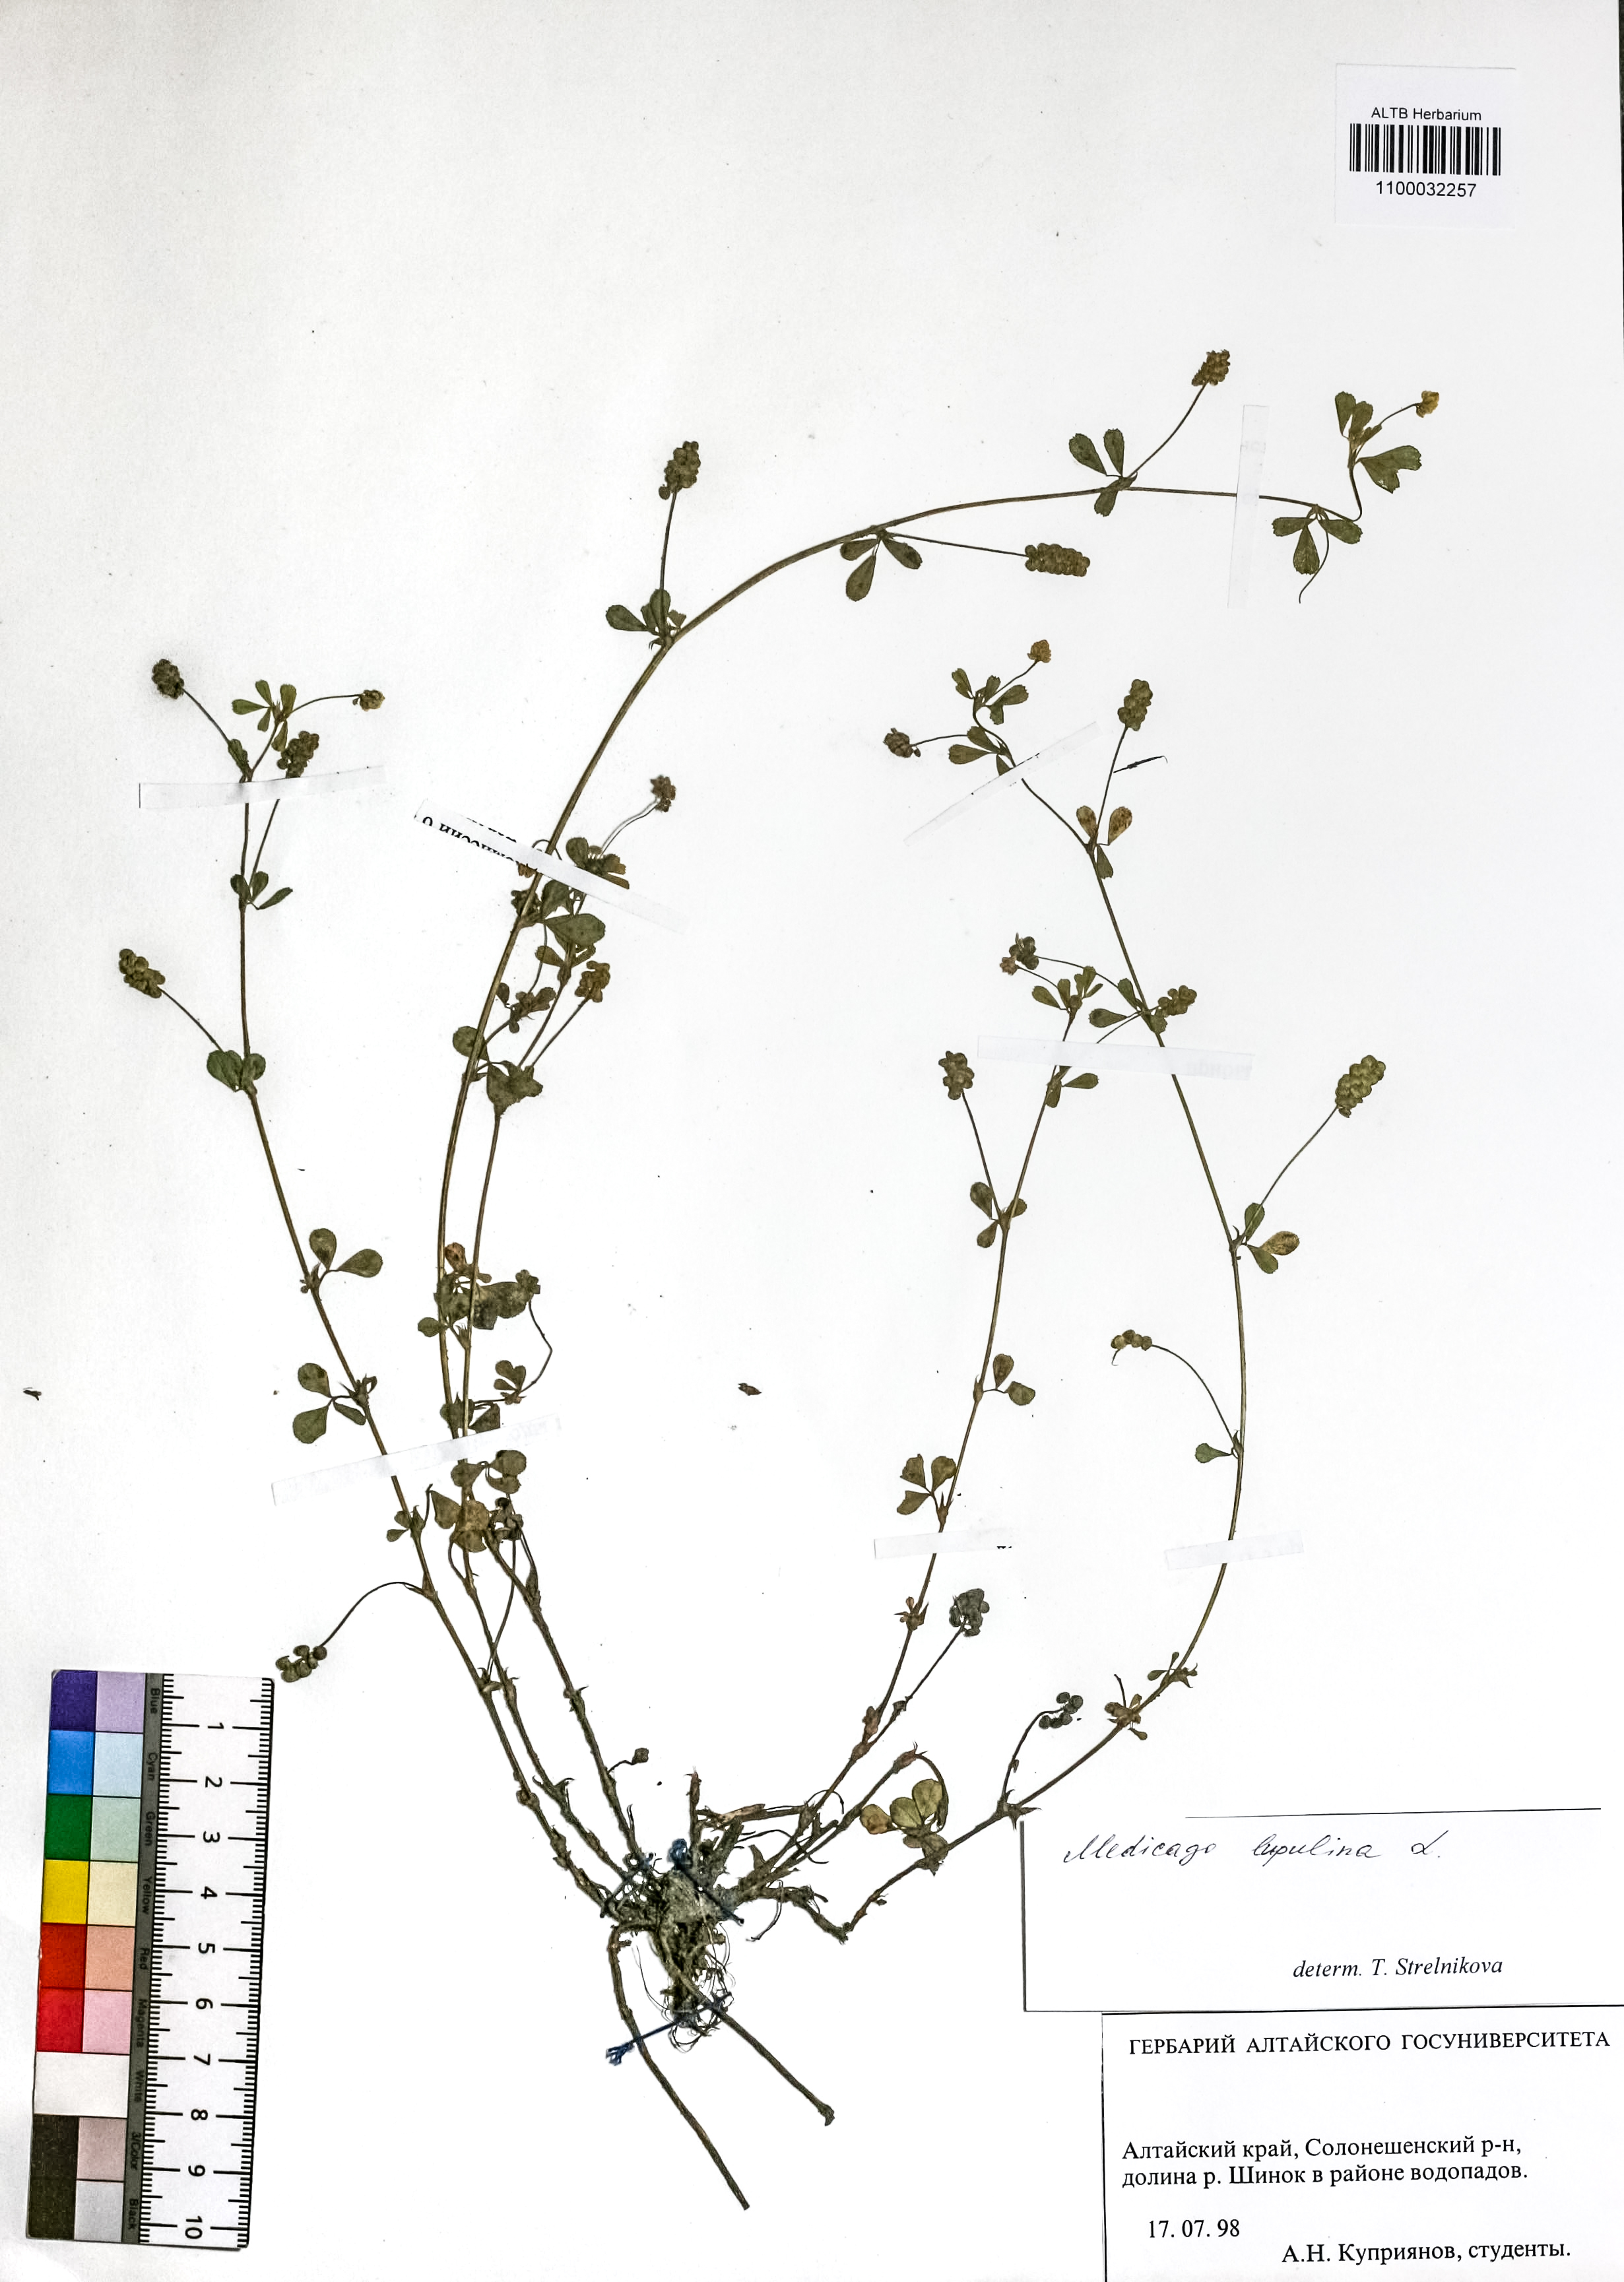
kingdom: Plantae
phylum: Tracheophyta
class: Magnoliopsida
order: Fabales
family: Fabaceae
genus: Medicago
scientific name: Medicago lupulina
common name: Black medick
